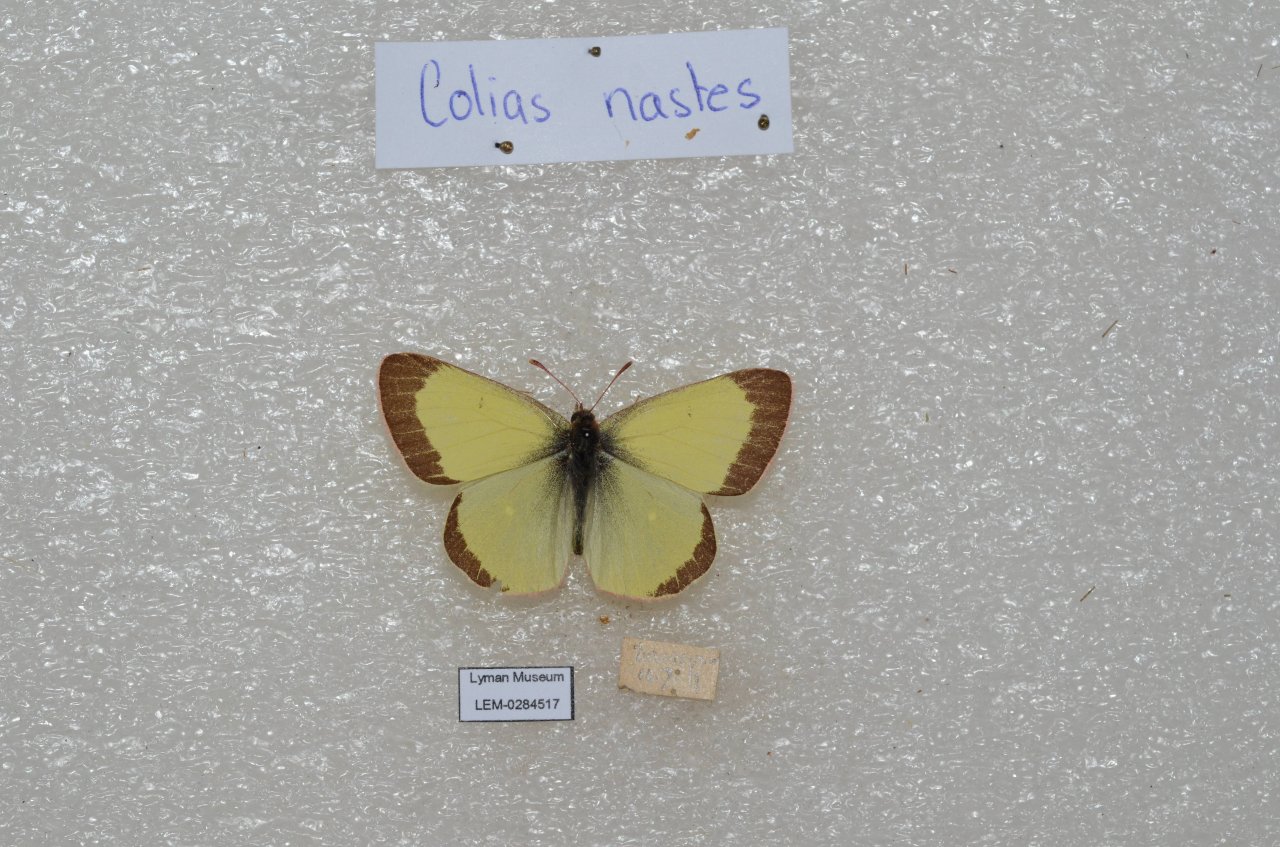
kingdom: Animalia
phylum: Arthropoda
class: Insecta
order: Lepidoptera
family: Pieridae
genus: Colias
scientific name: Colias palaeno
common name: Chippewa Sulphur
